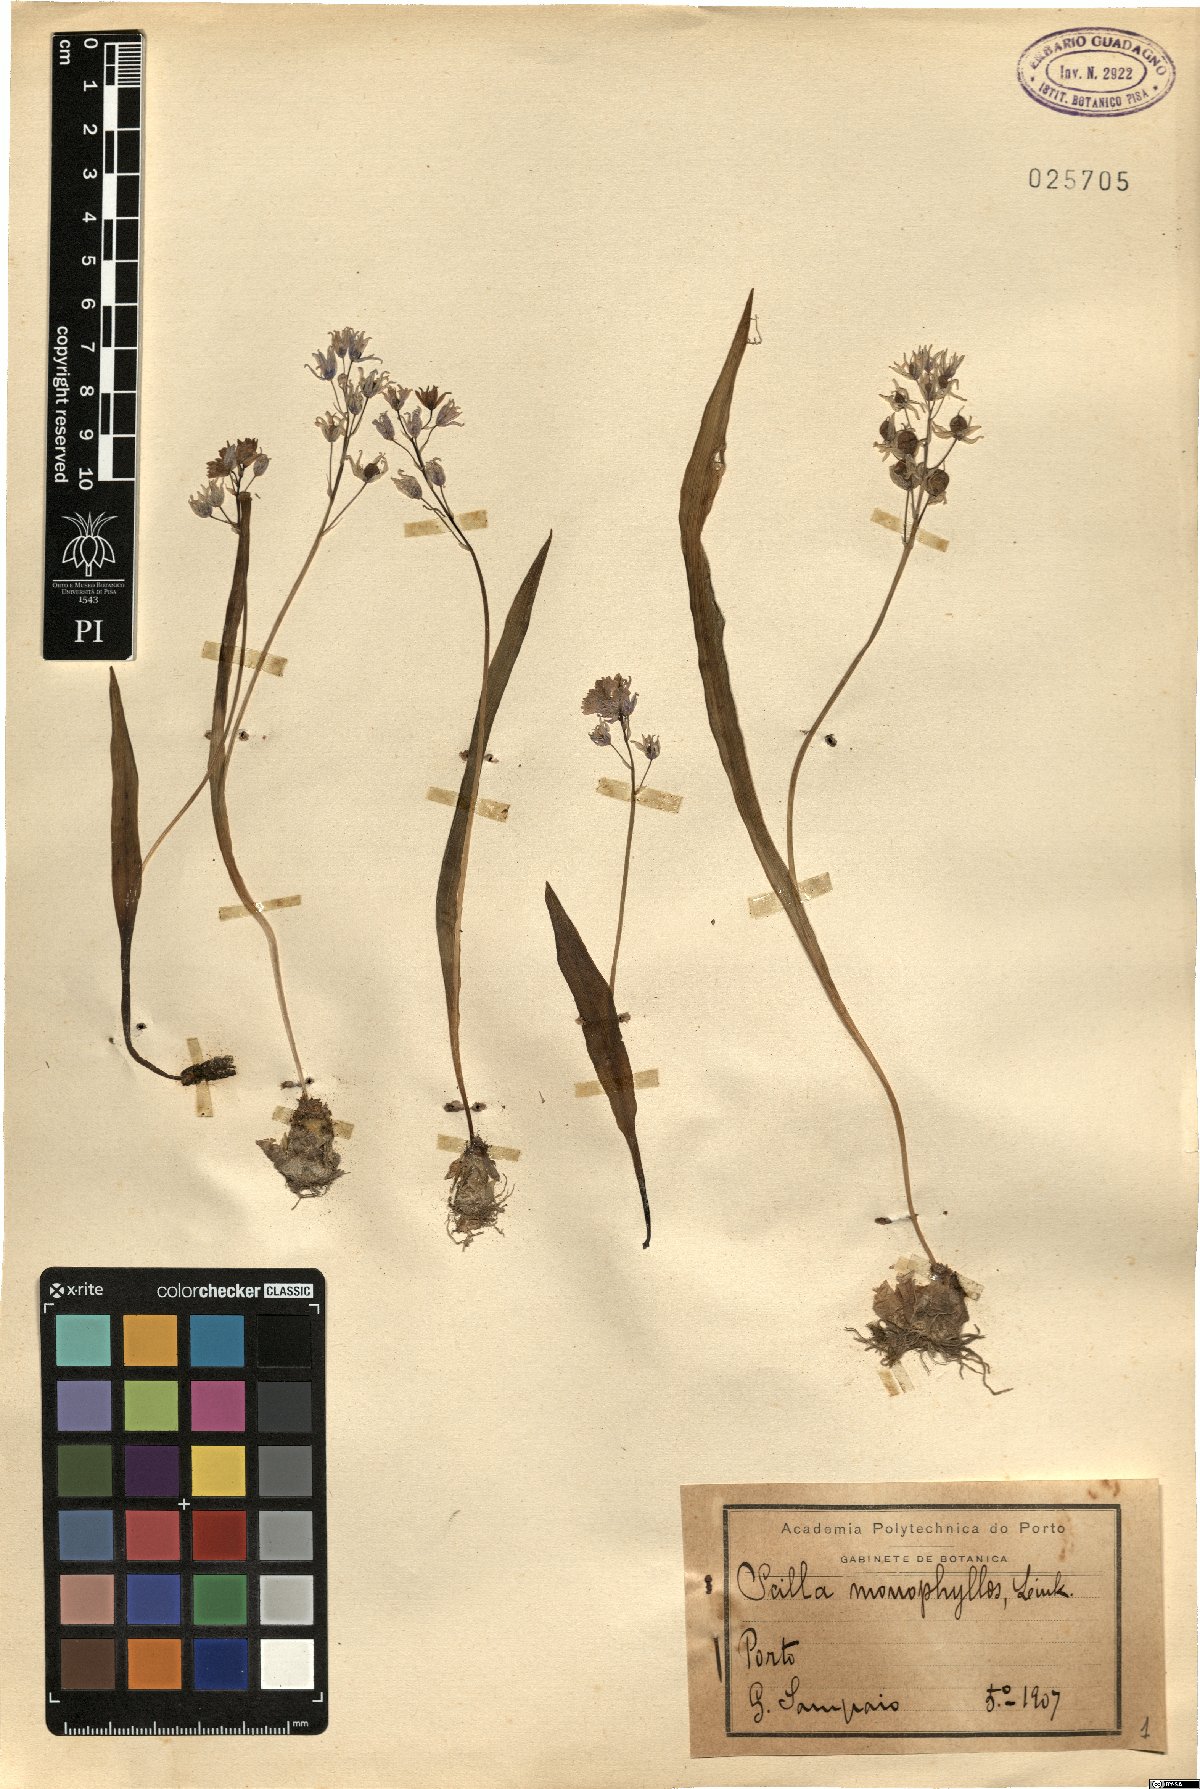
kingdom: Plantae
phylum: Tracheophyta
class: Liliopsida
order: Asparagales
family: Asparagaceae
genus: Scilla
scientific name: Scilla monophyllos
